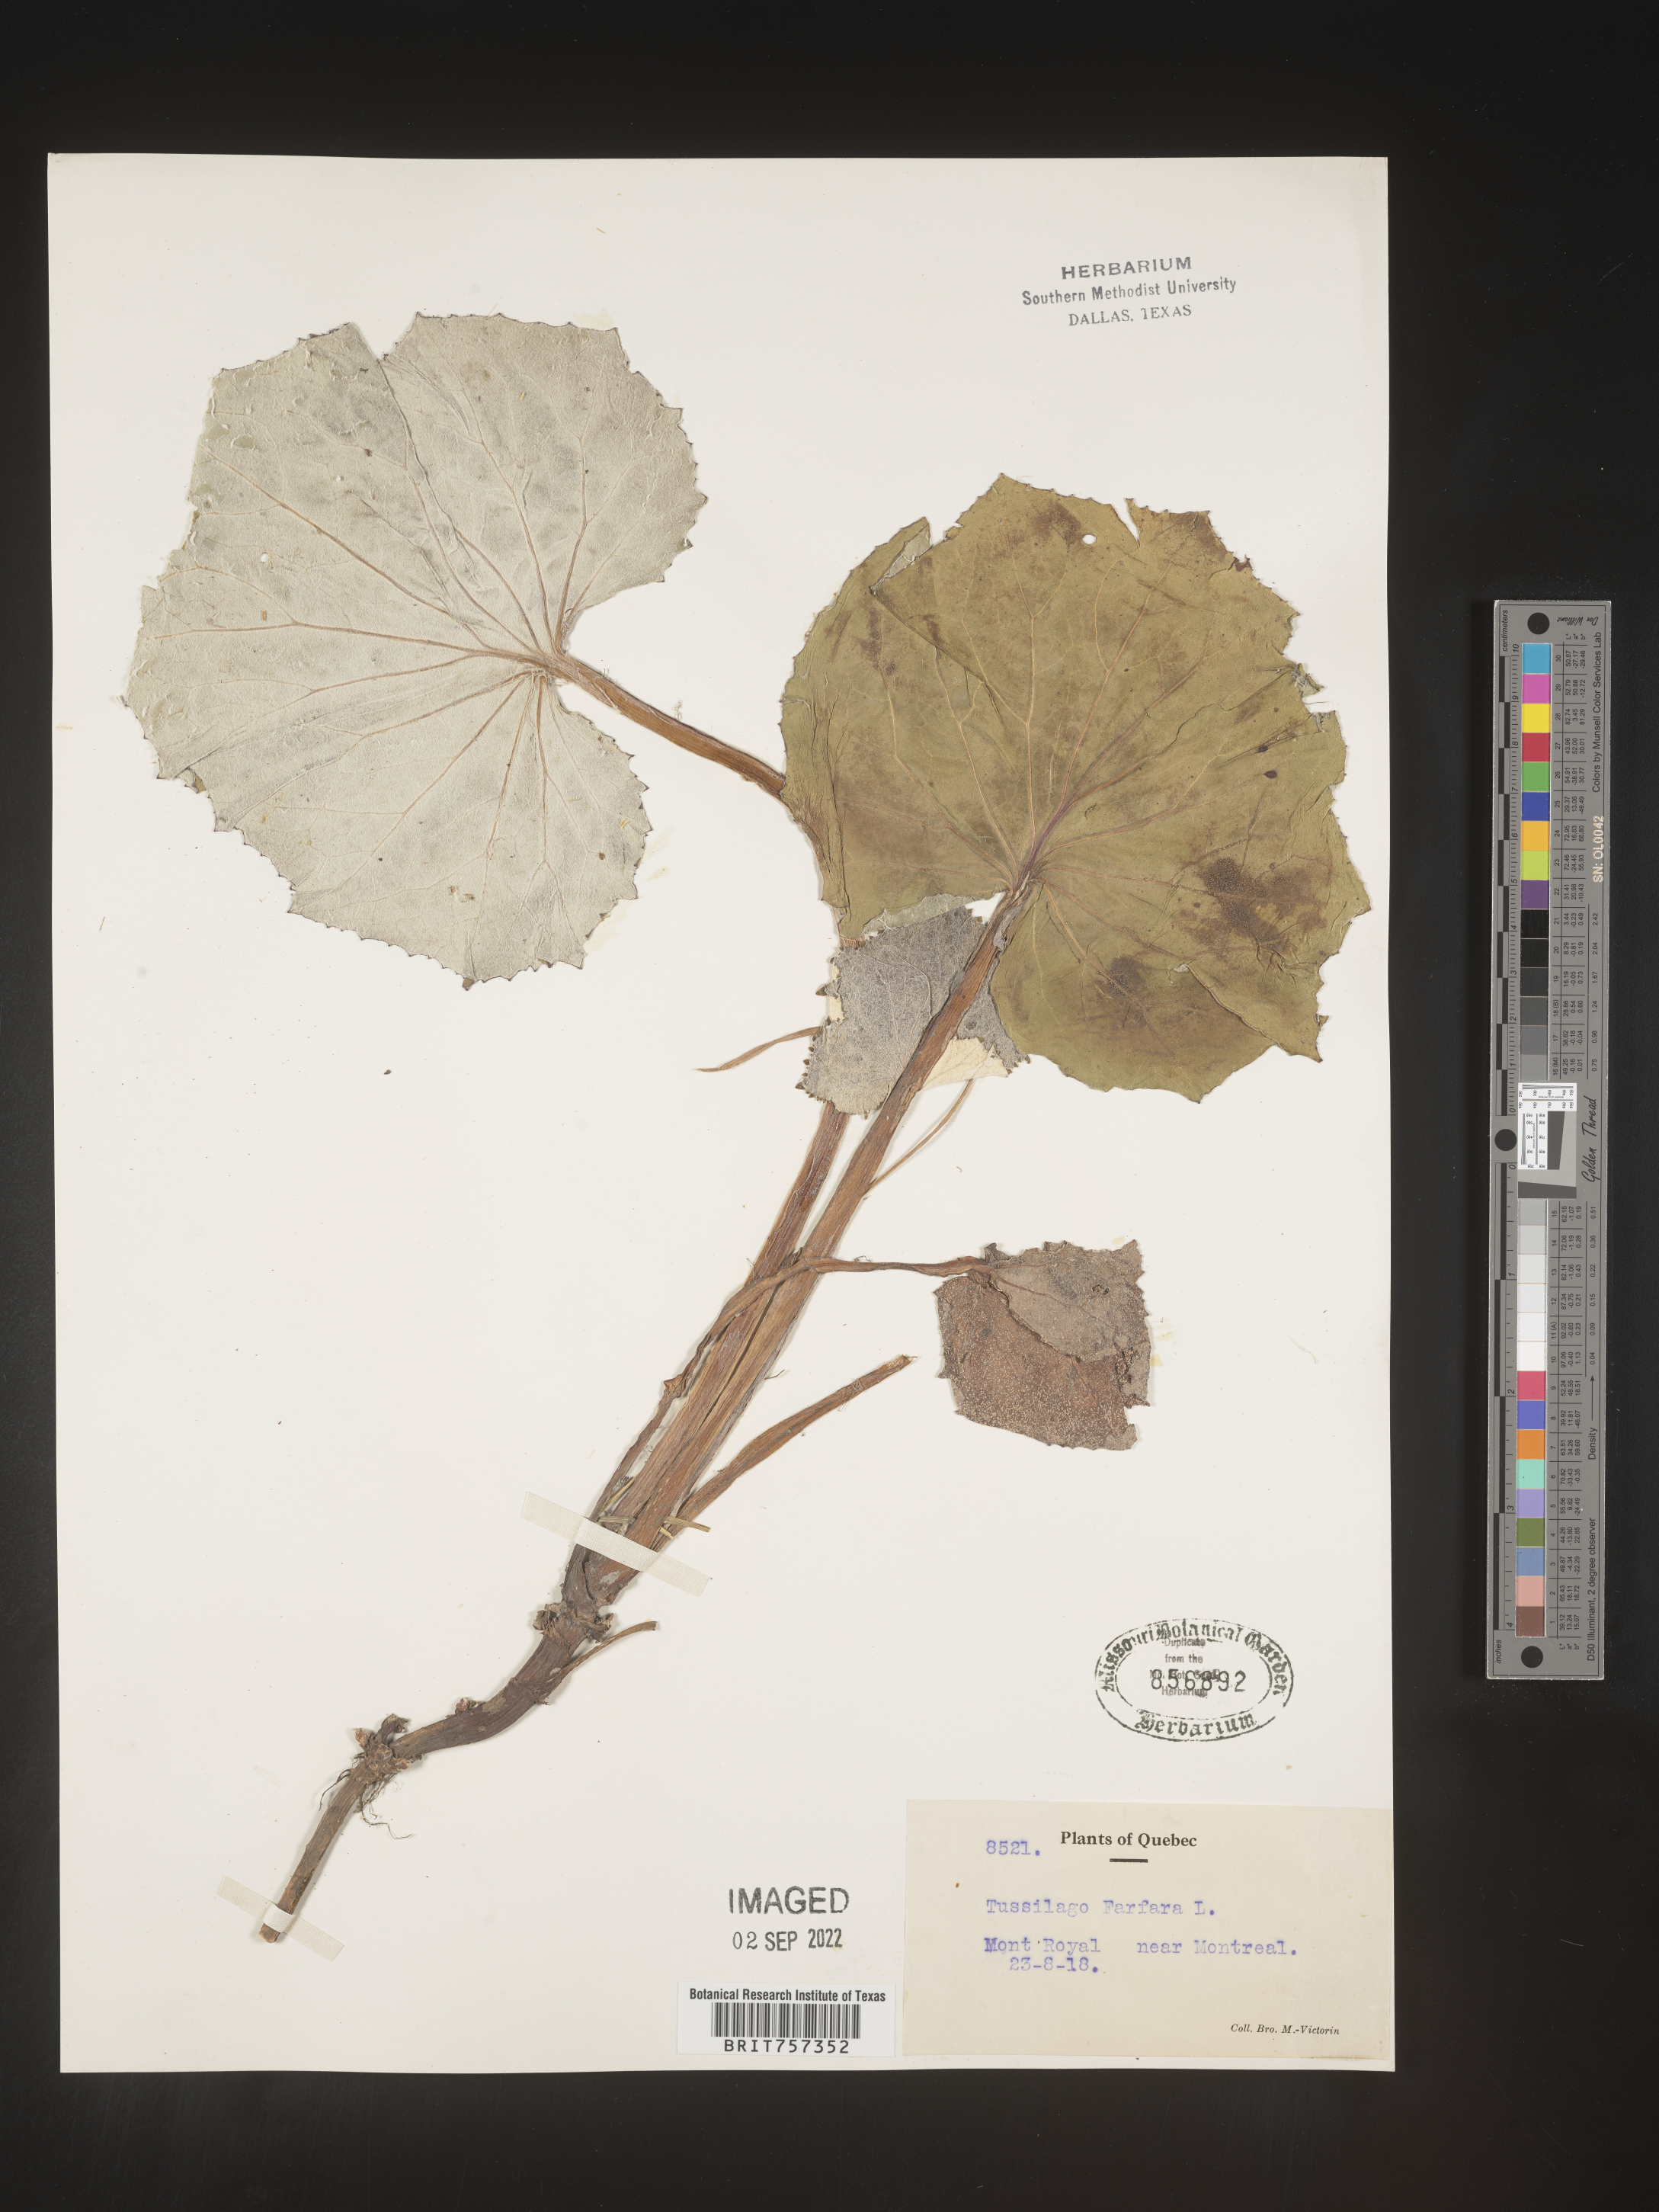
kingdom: Plantae
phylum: Tracheophyta
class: Magnoliopsida
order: Asterales
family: Asteraceae
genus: Tussilago
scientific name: Tussilago
